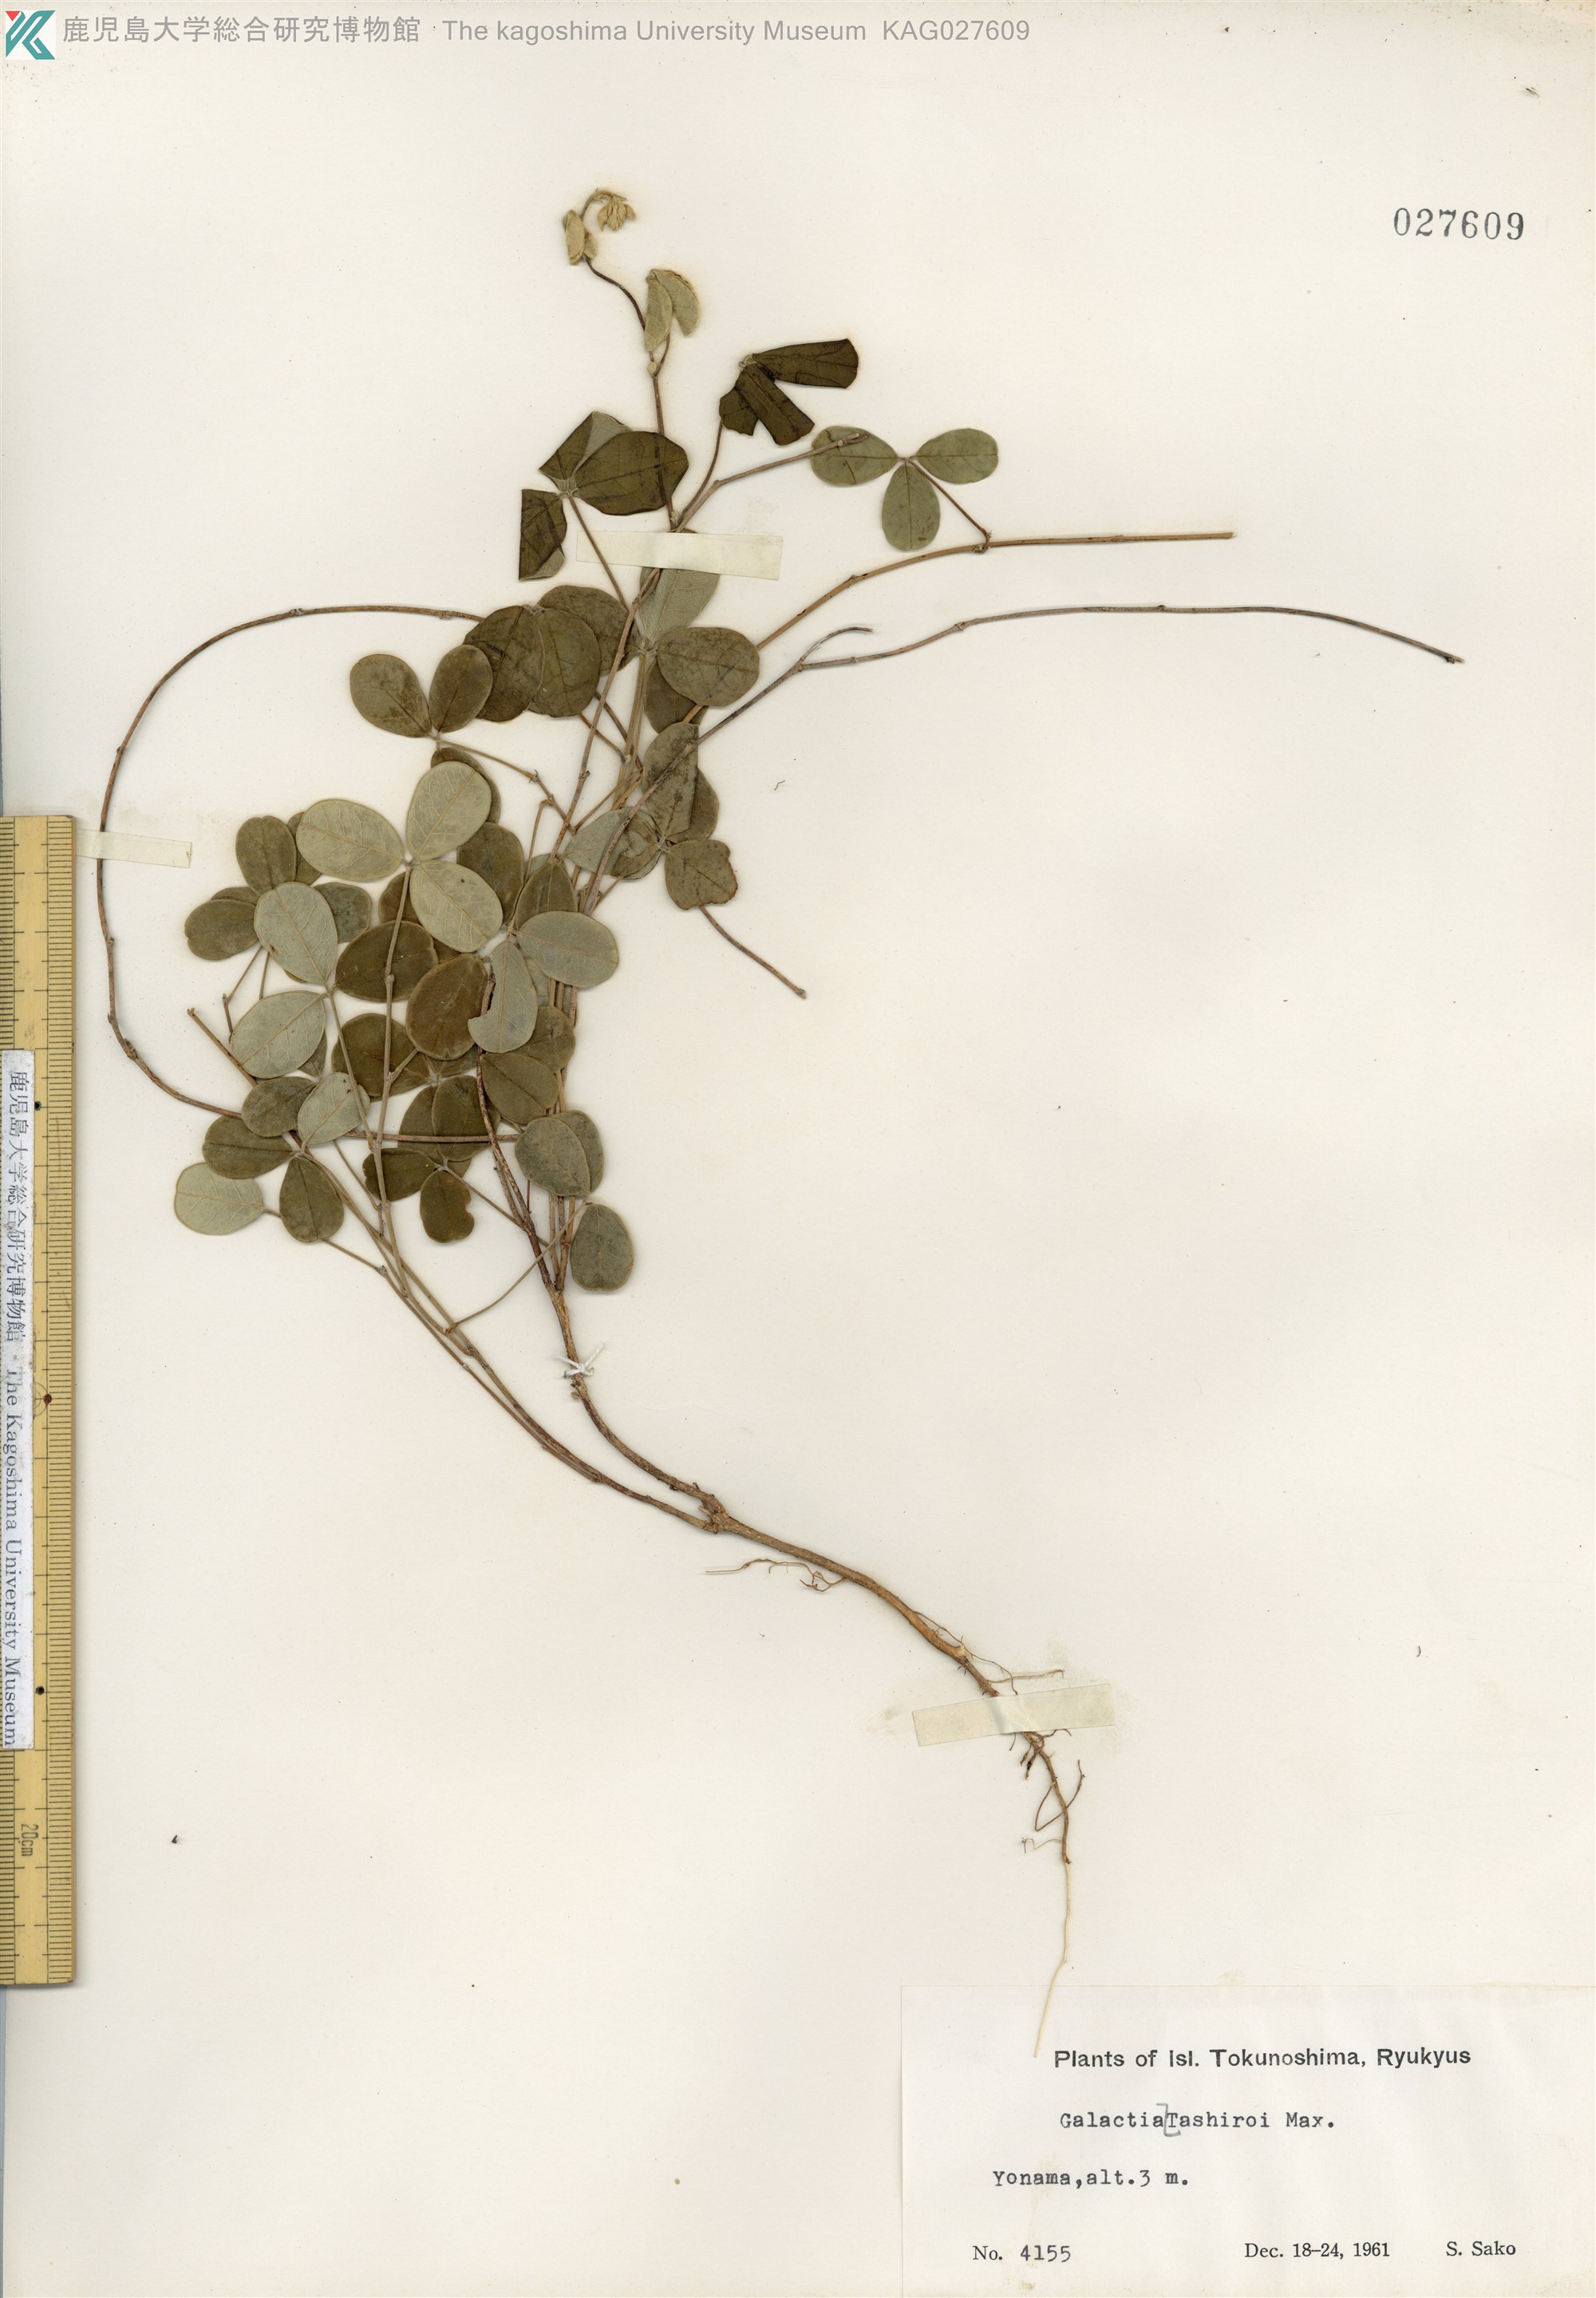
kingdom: Plantae
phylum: Tracheophyta
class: Magnoliopsida
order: Fabales
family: Fabaceae
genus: Galactia
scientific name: Galactia tashiroi
